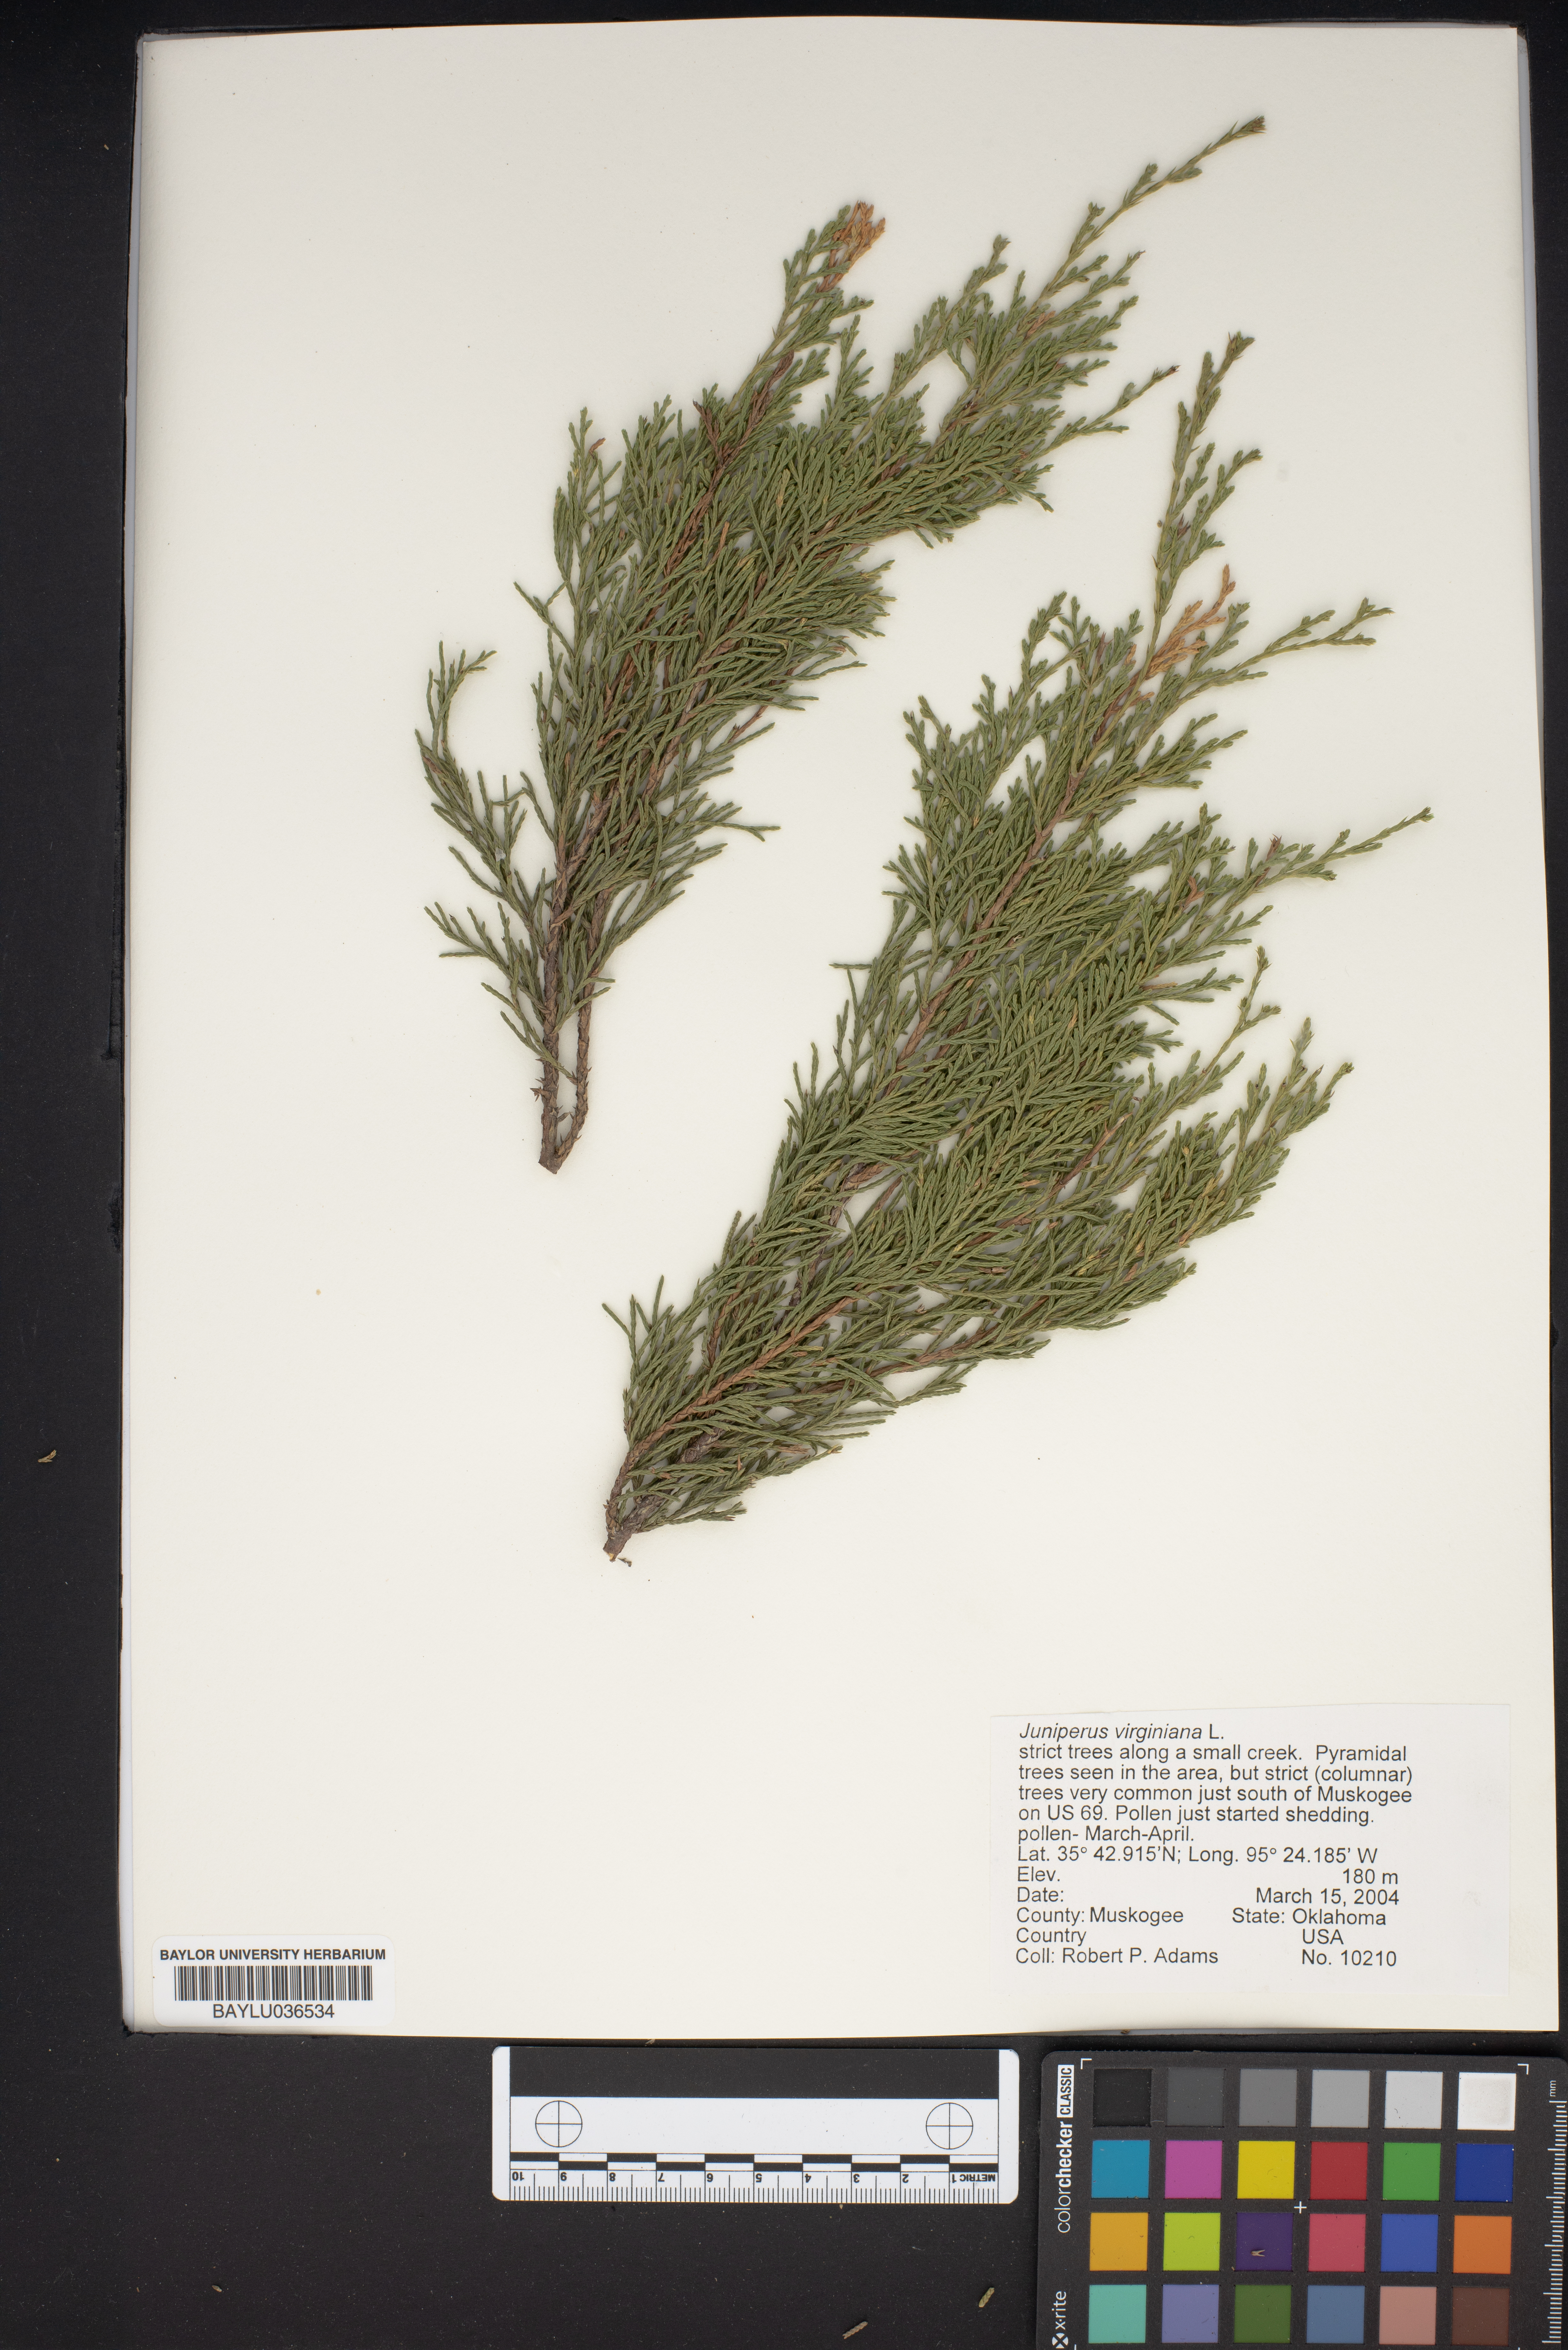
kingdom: Plantae
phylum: Tracheophyta
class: Pinopsida
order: Pinales
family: Cupressaceae
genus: Juniperus
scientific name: Juniperus virginiana
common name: Red juniper
